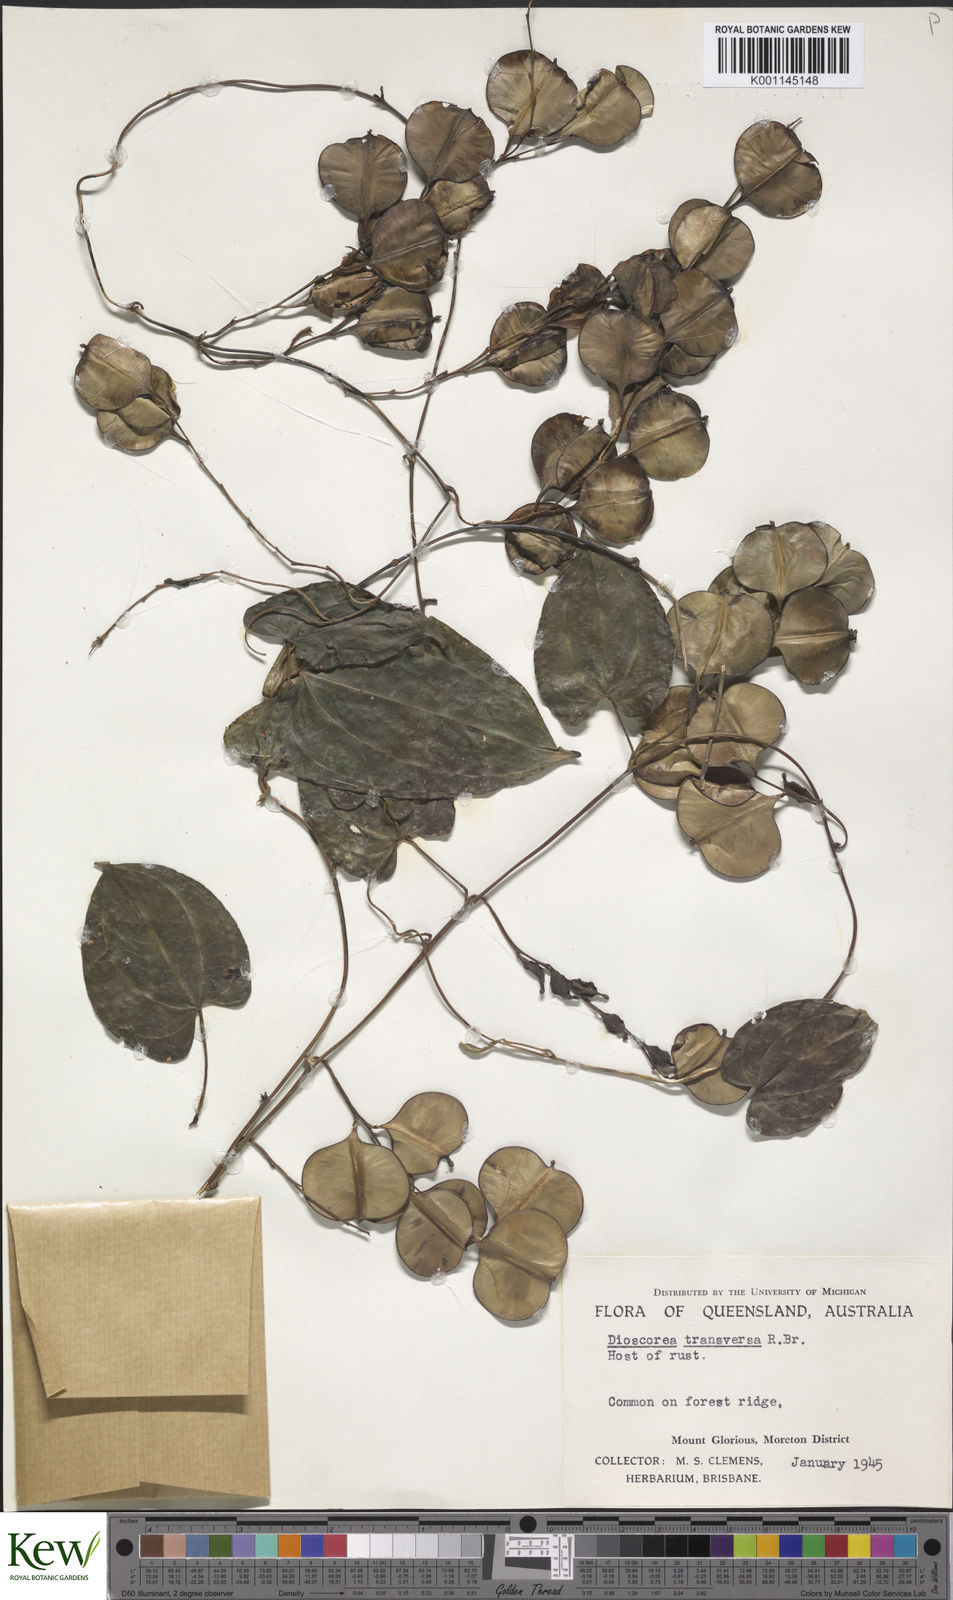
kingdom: Plantae
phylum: Tracheophyta
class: Liliopsida
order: Dioscoreales
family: Dioscoreaceae
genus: Dioscorea
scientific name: Dioscorea transversa
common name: Long yam
